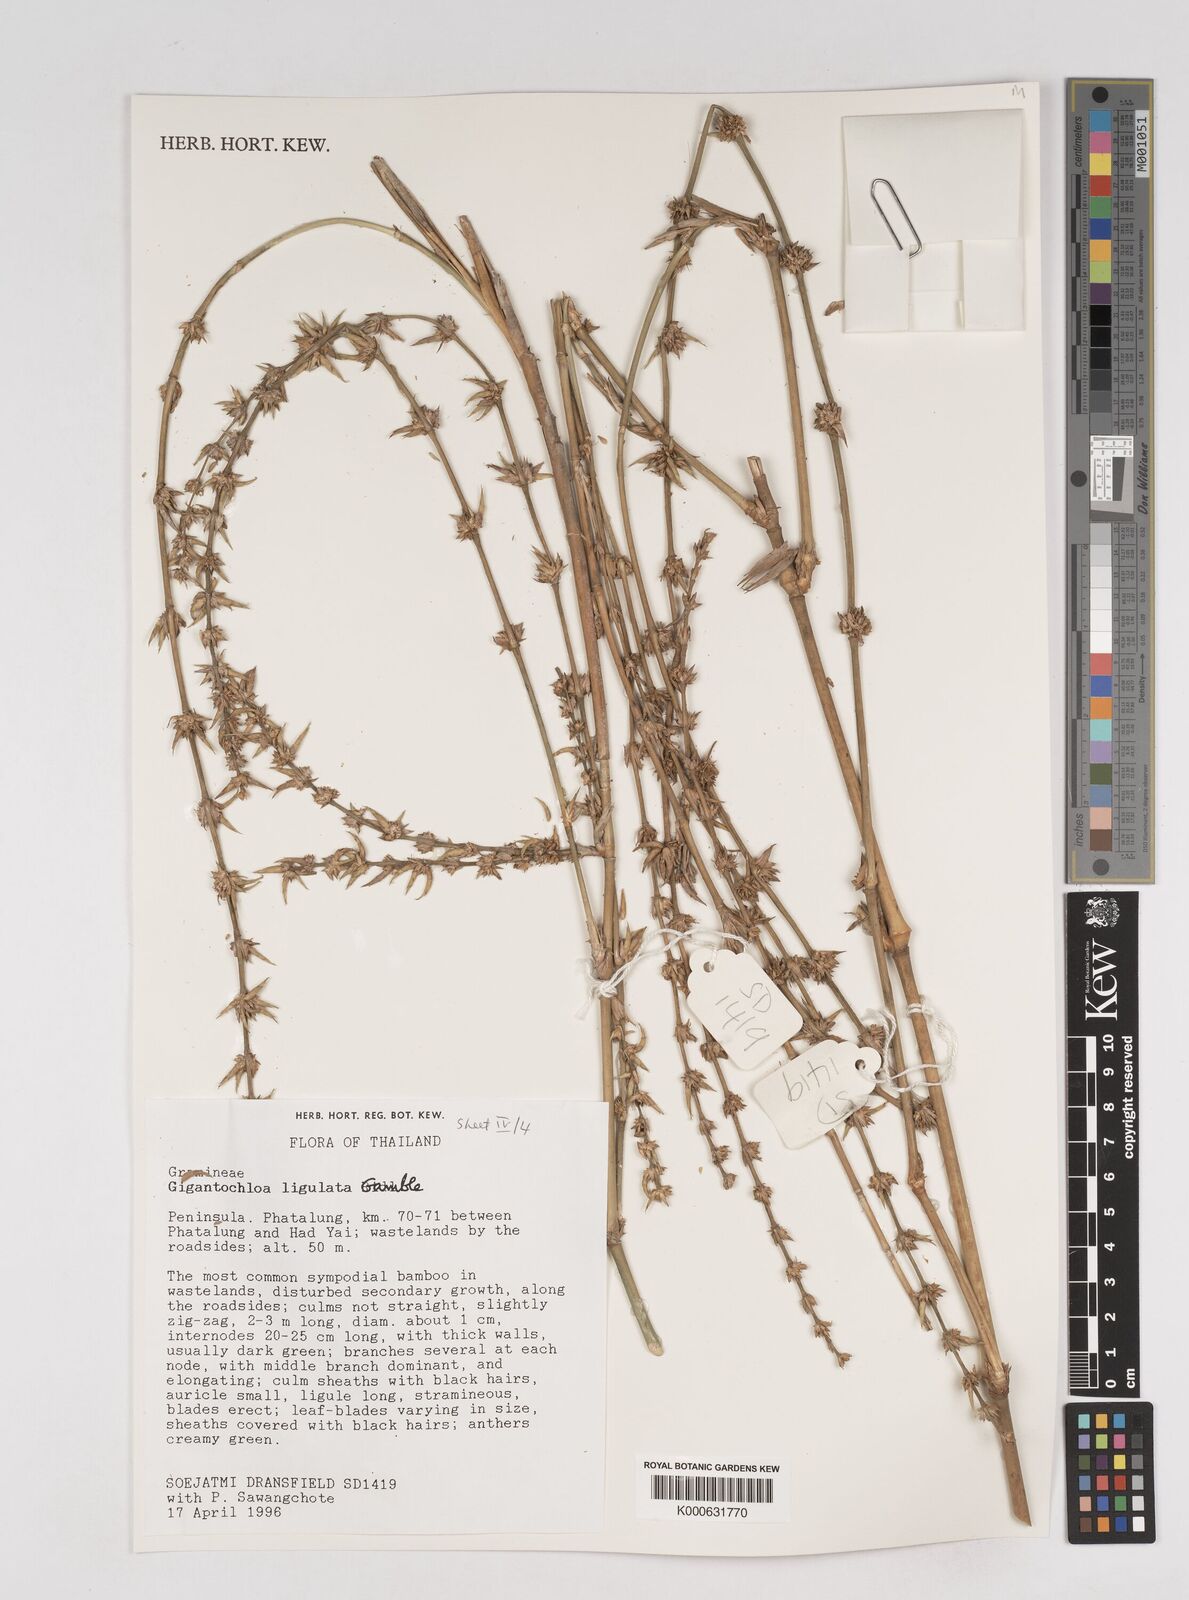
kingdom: Plantae
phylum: Tracheophyta
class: Liliopsida
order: Poales
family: Poaceae
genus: Gigantochloa
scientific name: Gigantochloa ligulata
